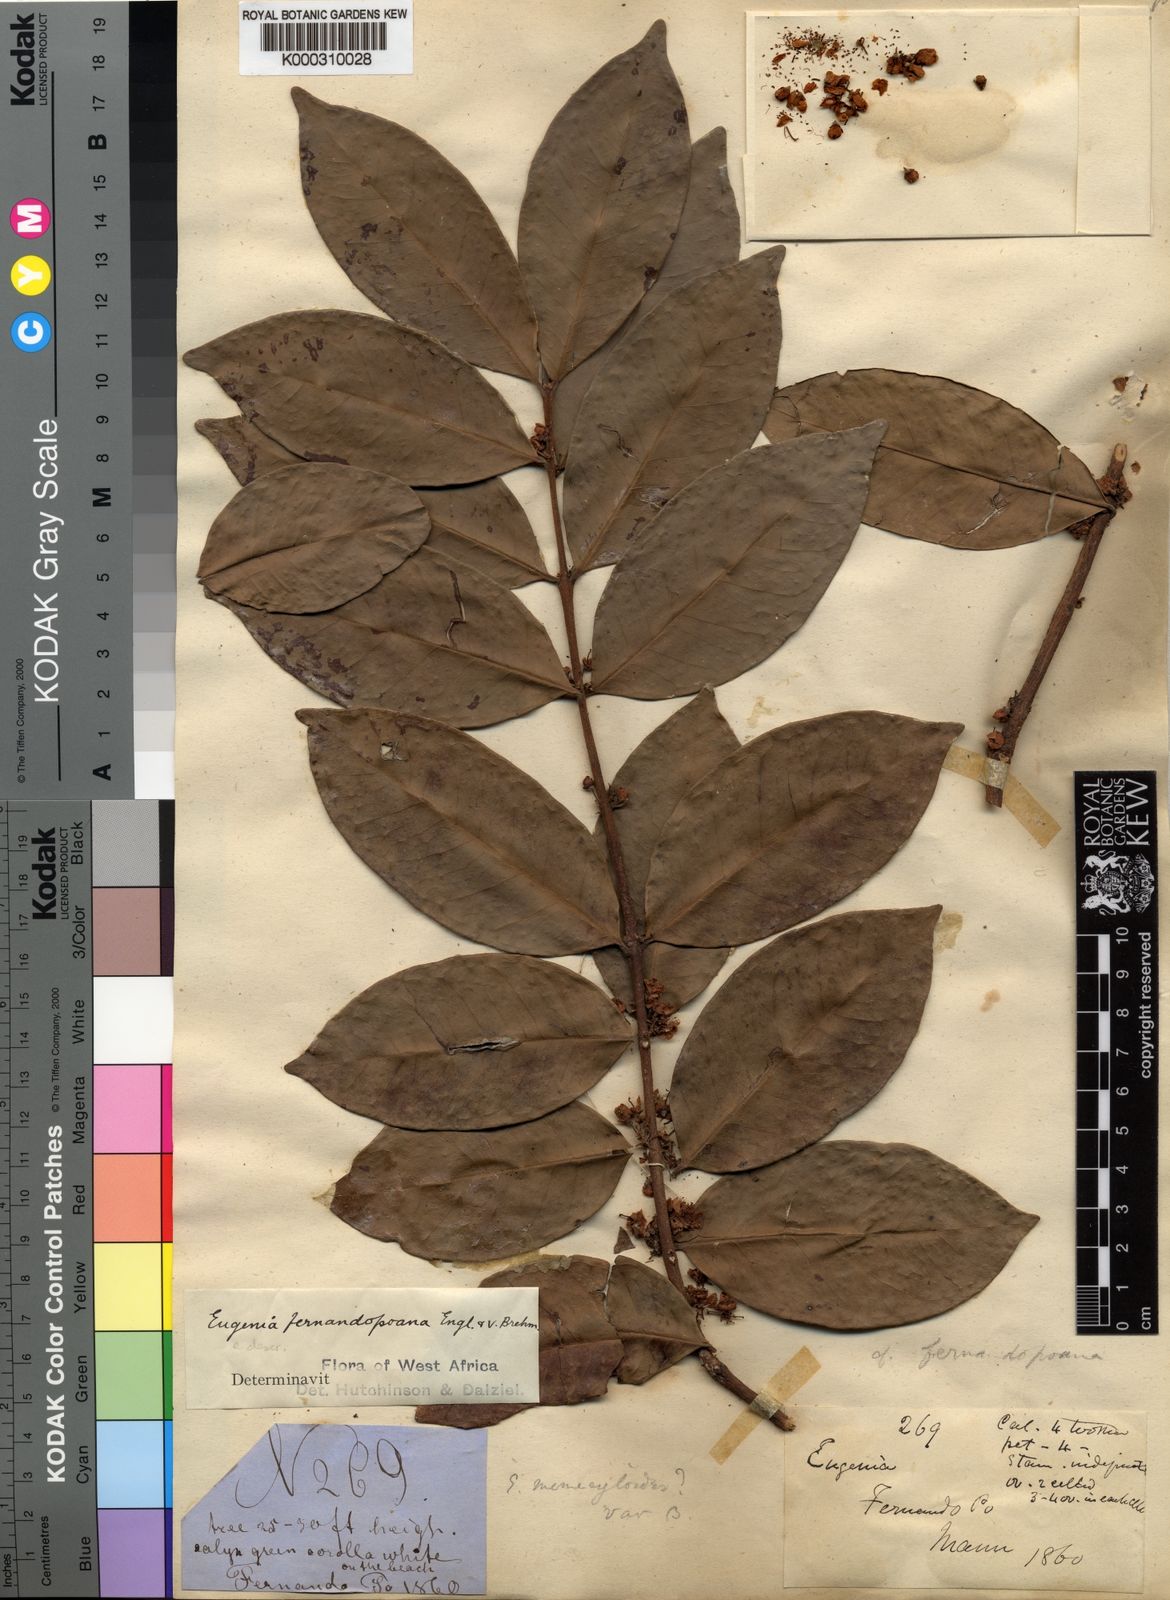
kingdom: Plantae
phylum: Tracheophyta
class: Magnoliopsida
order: Myrtales
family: Myrtaceae
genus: Eugenia
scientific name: Eugenia fernandopoana
